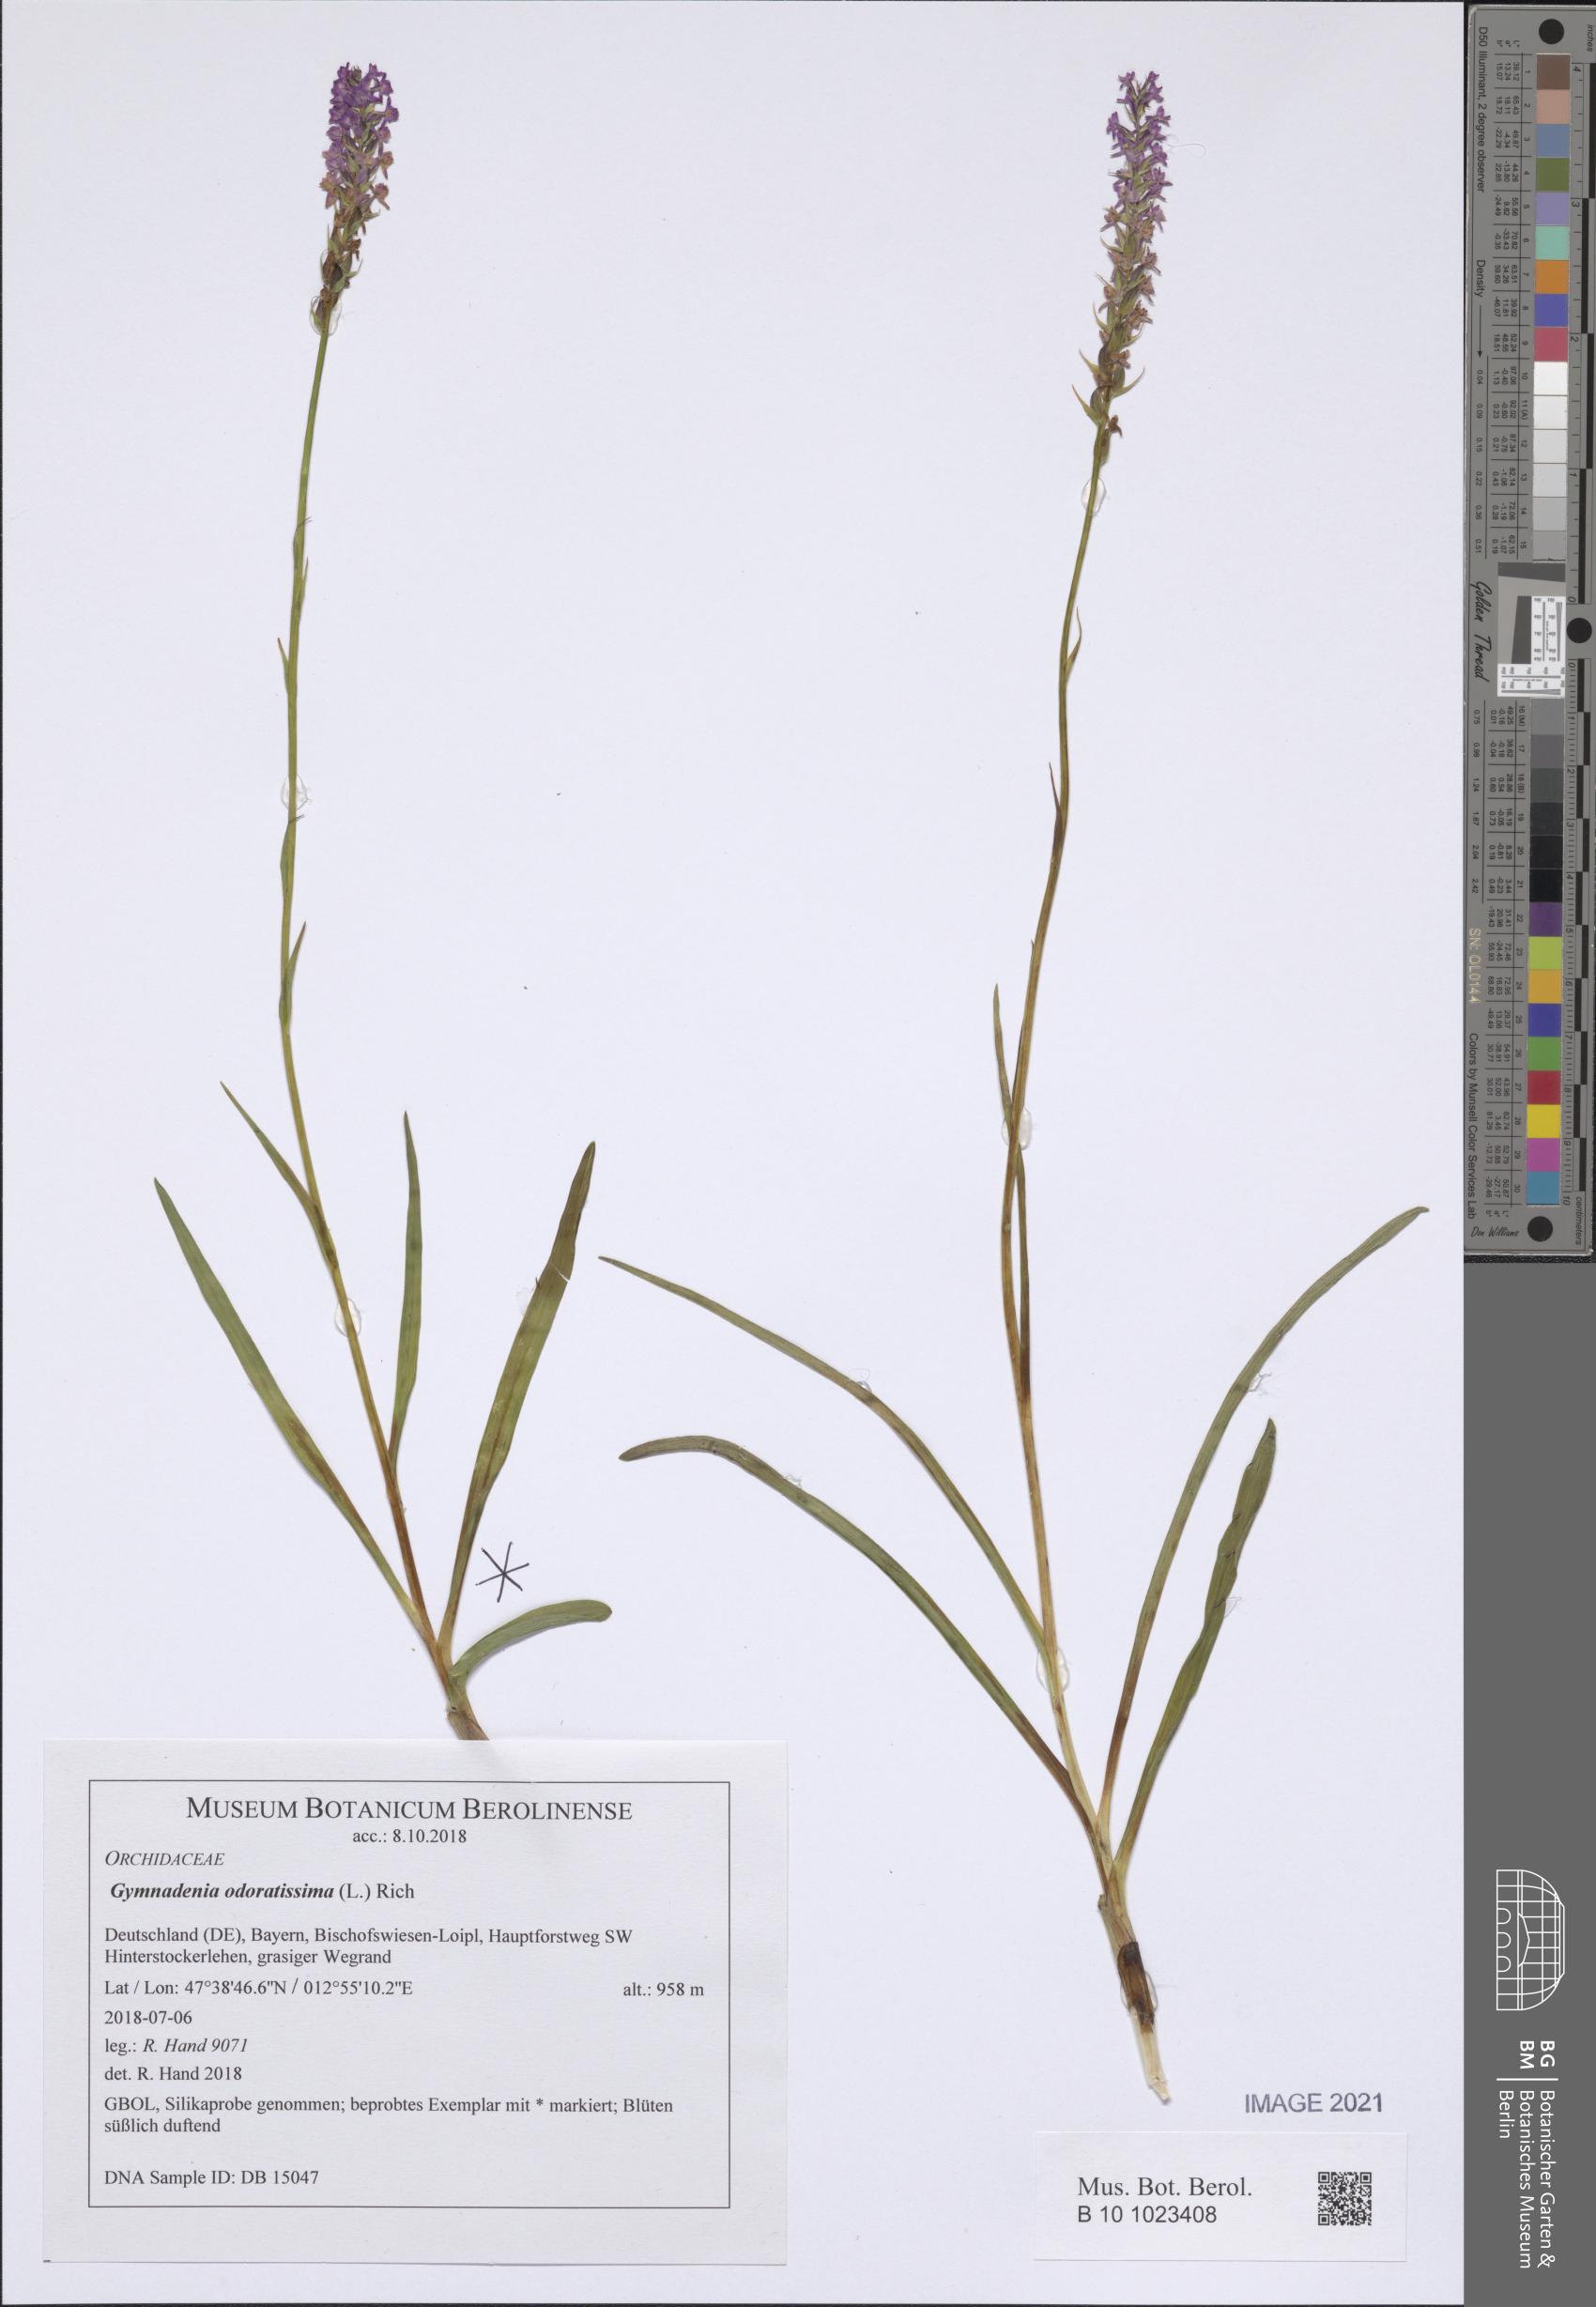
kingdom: Plantae
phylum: Tracheophyta
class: Liliopsida
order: Asparagales
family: Orchidaceae
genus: Gymnadenia
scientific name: Gymnadenia odoratissima
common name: Scented gymnadenia
